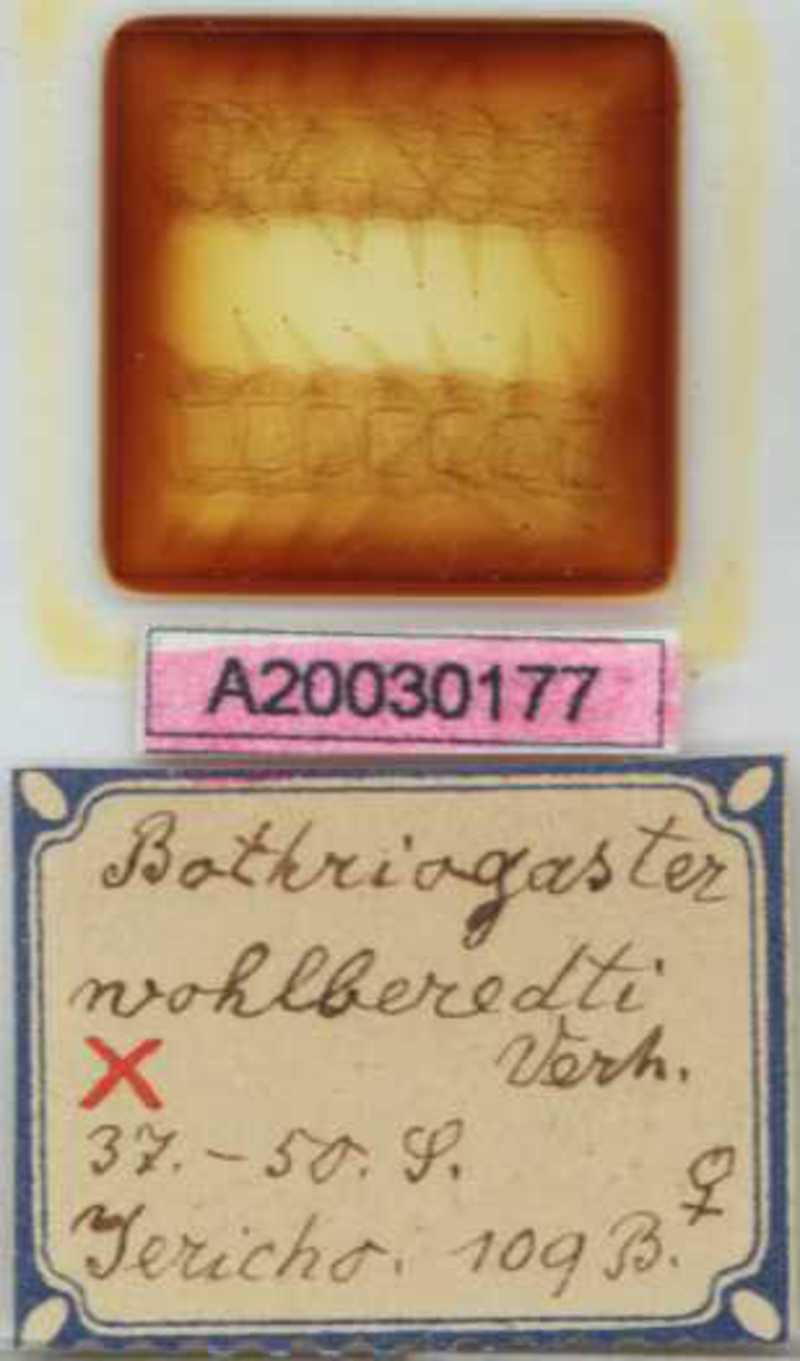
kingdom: Animalia
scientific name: Animalia
